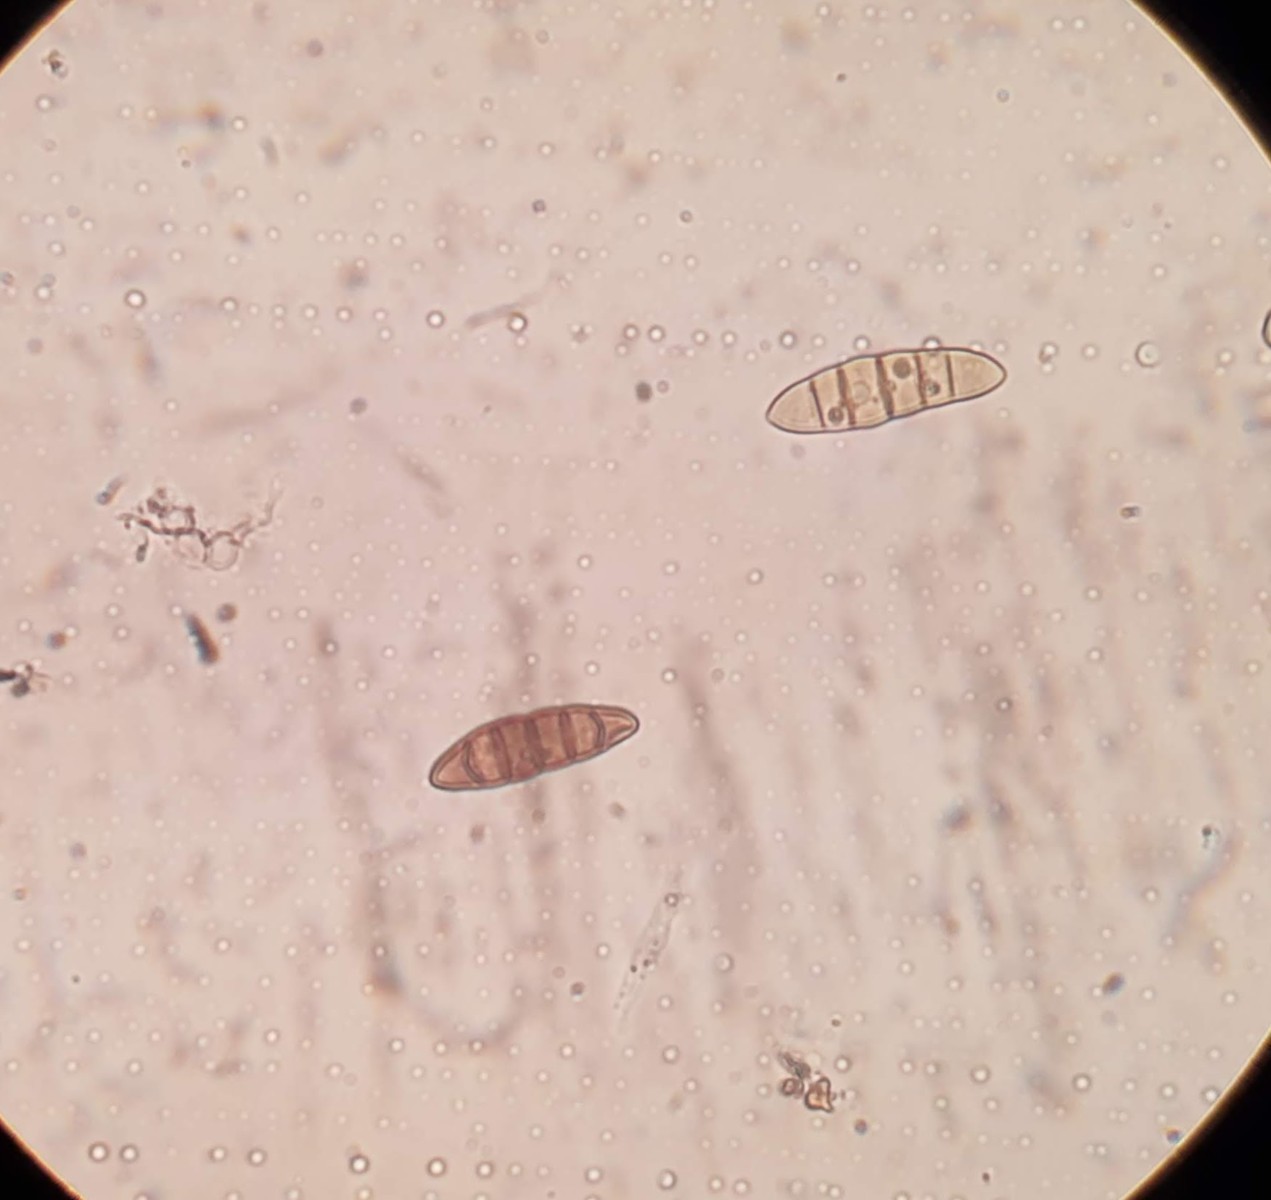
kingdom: Fungi
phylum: Ascomycota
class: Dothideomycetes
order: Pleosporales
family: Thyridariaceae
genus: Thyridaria
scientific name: Thyridaria macrostomoides
